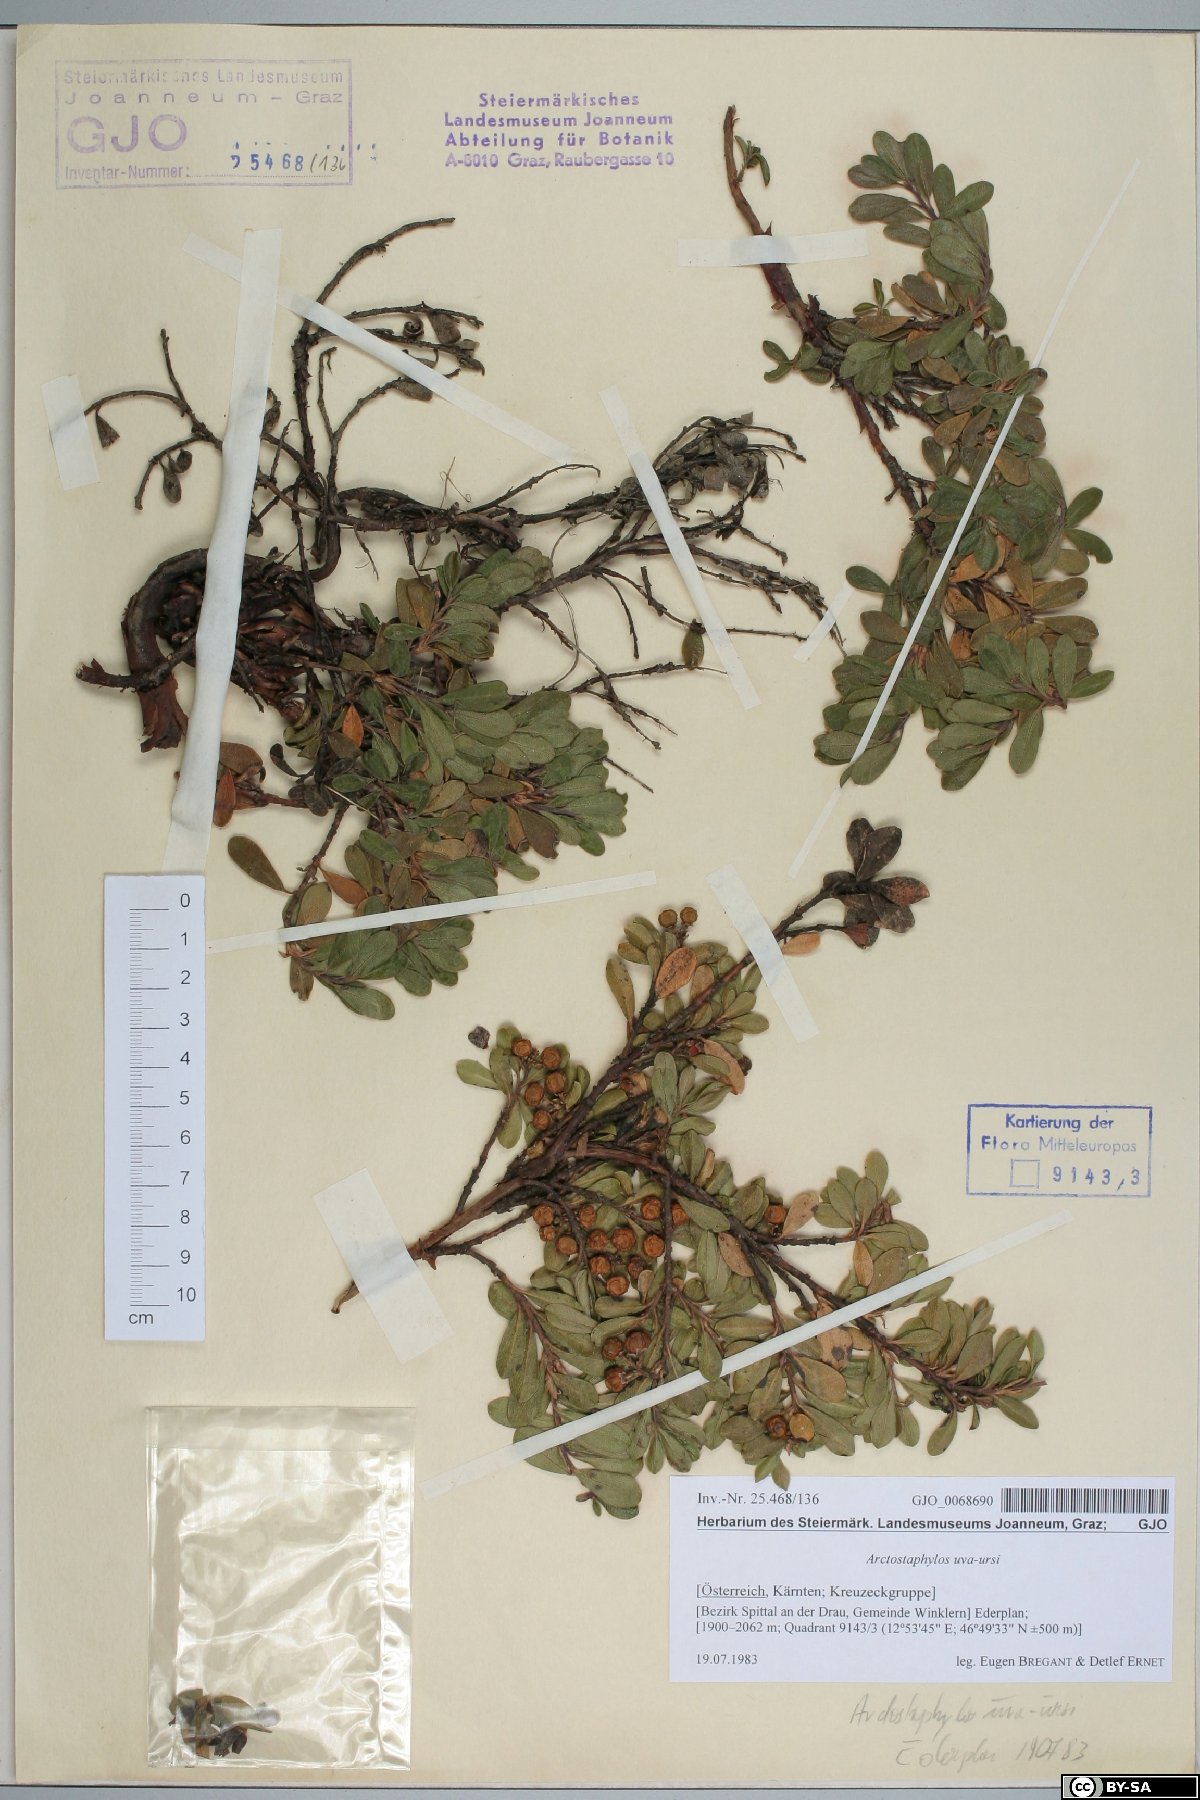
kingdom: Plantae
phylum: Tracheophyta
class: Magnoliopsida
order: Ericales
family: Ericaceae
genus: Arctostaphylos
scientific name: Arctostaphylos uva-ursi
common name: Bearberry
